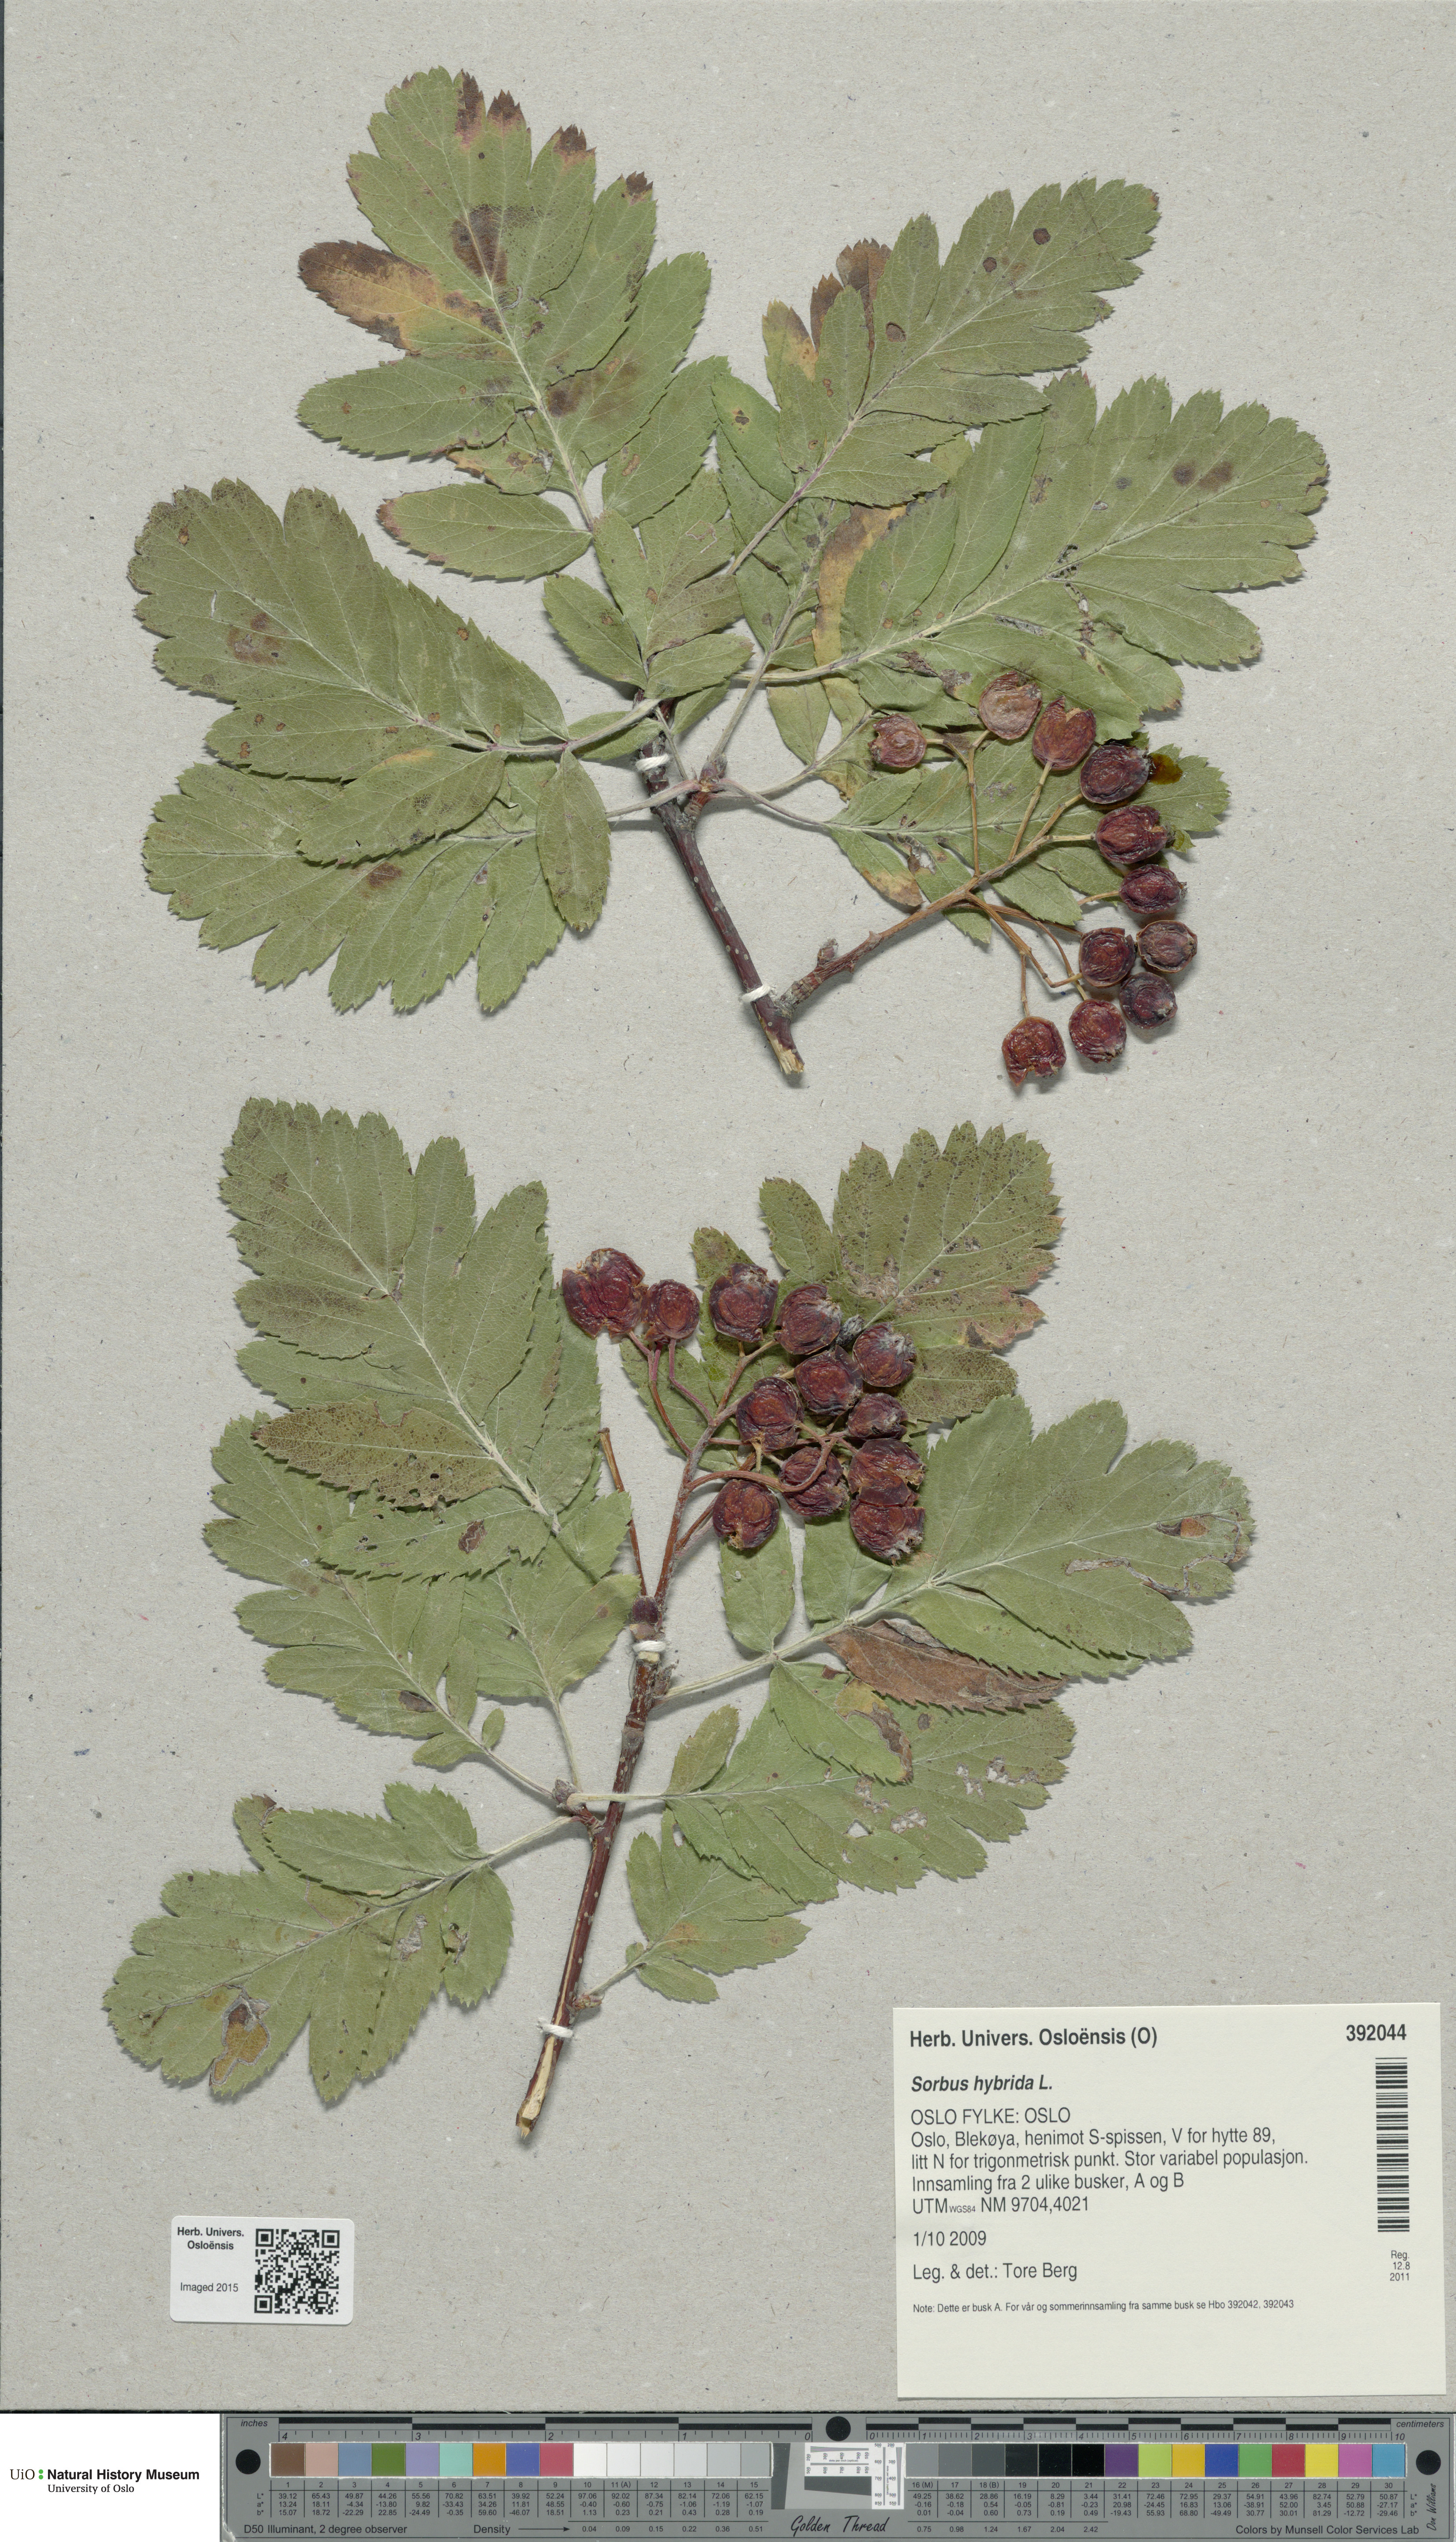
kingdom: Plantae
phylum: Tracheophyta
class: Magnoliopsida
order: Rosales
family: Rosaceae
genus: Hedlundia
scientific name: Hedlundia hybrida
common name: Swedish service-tree
